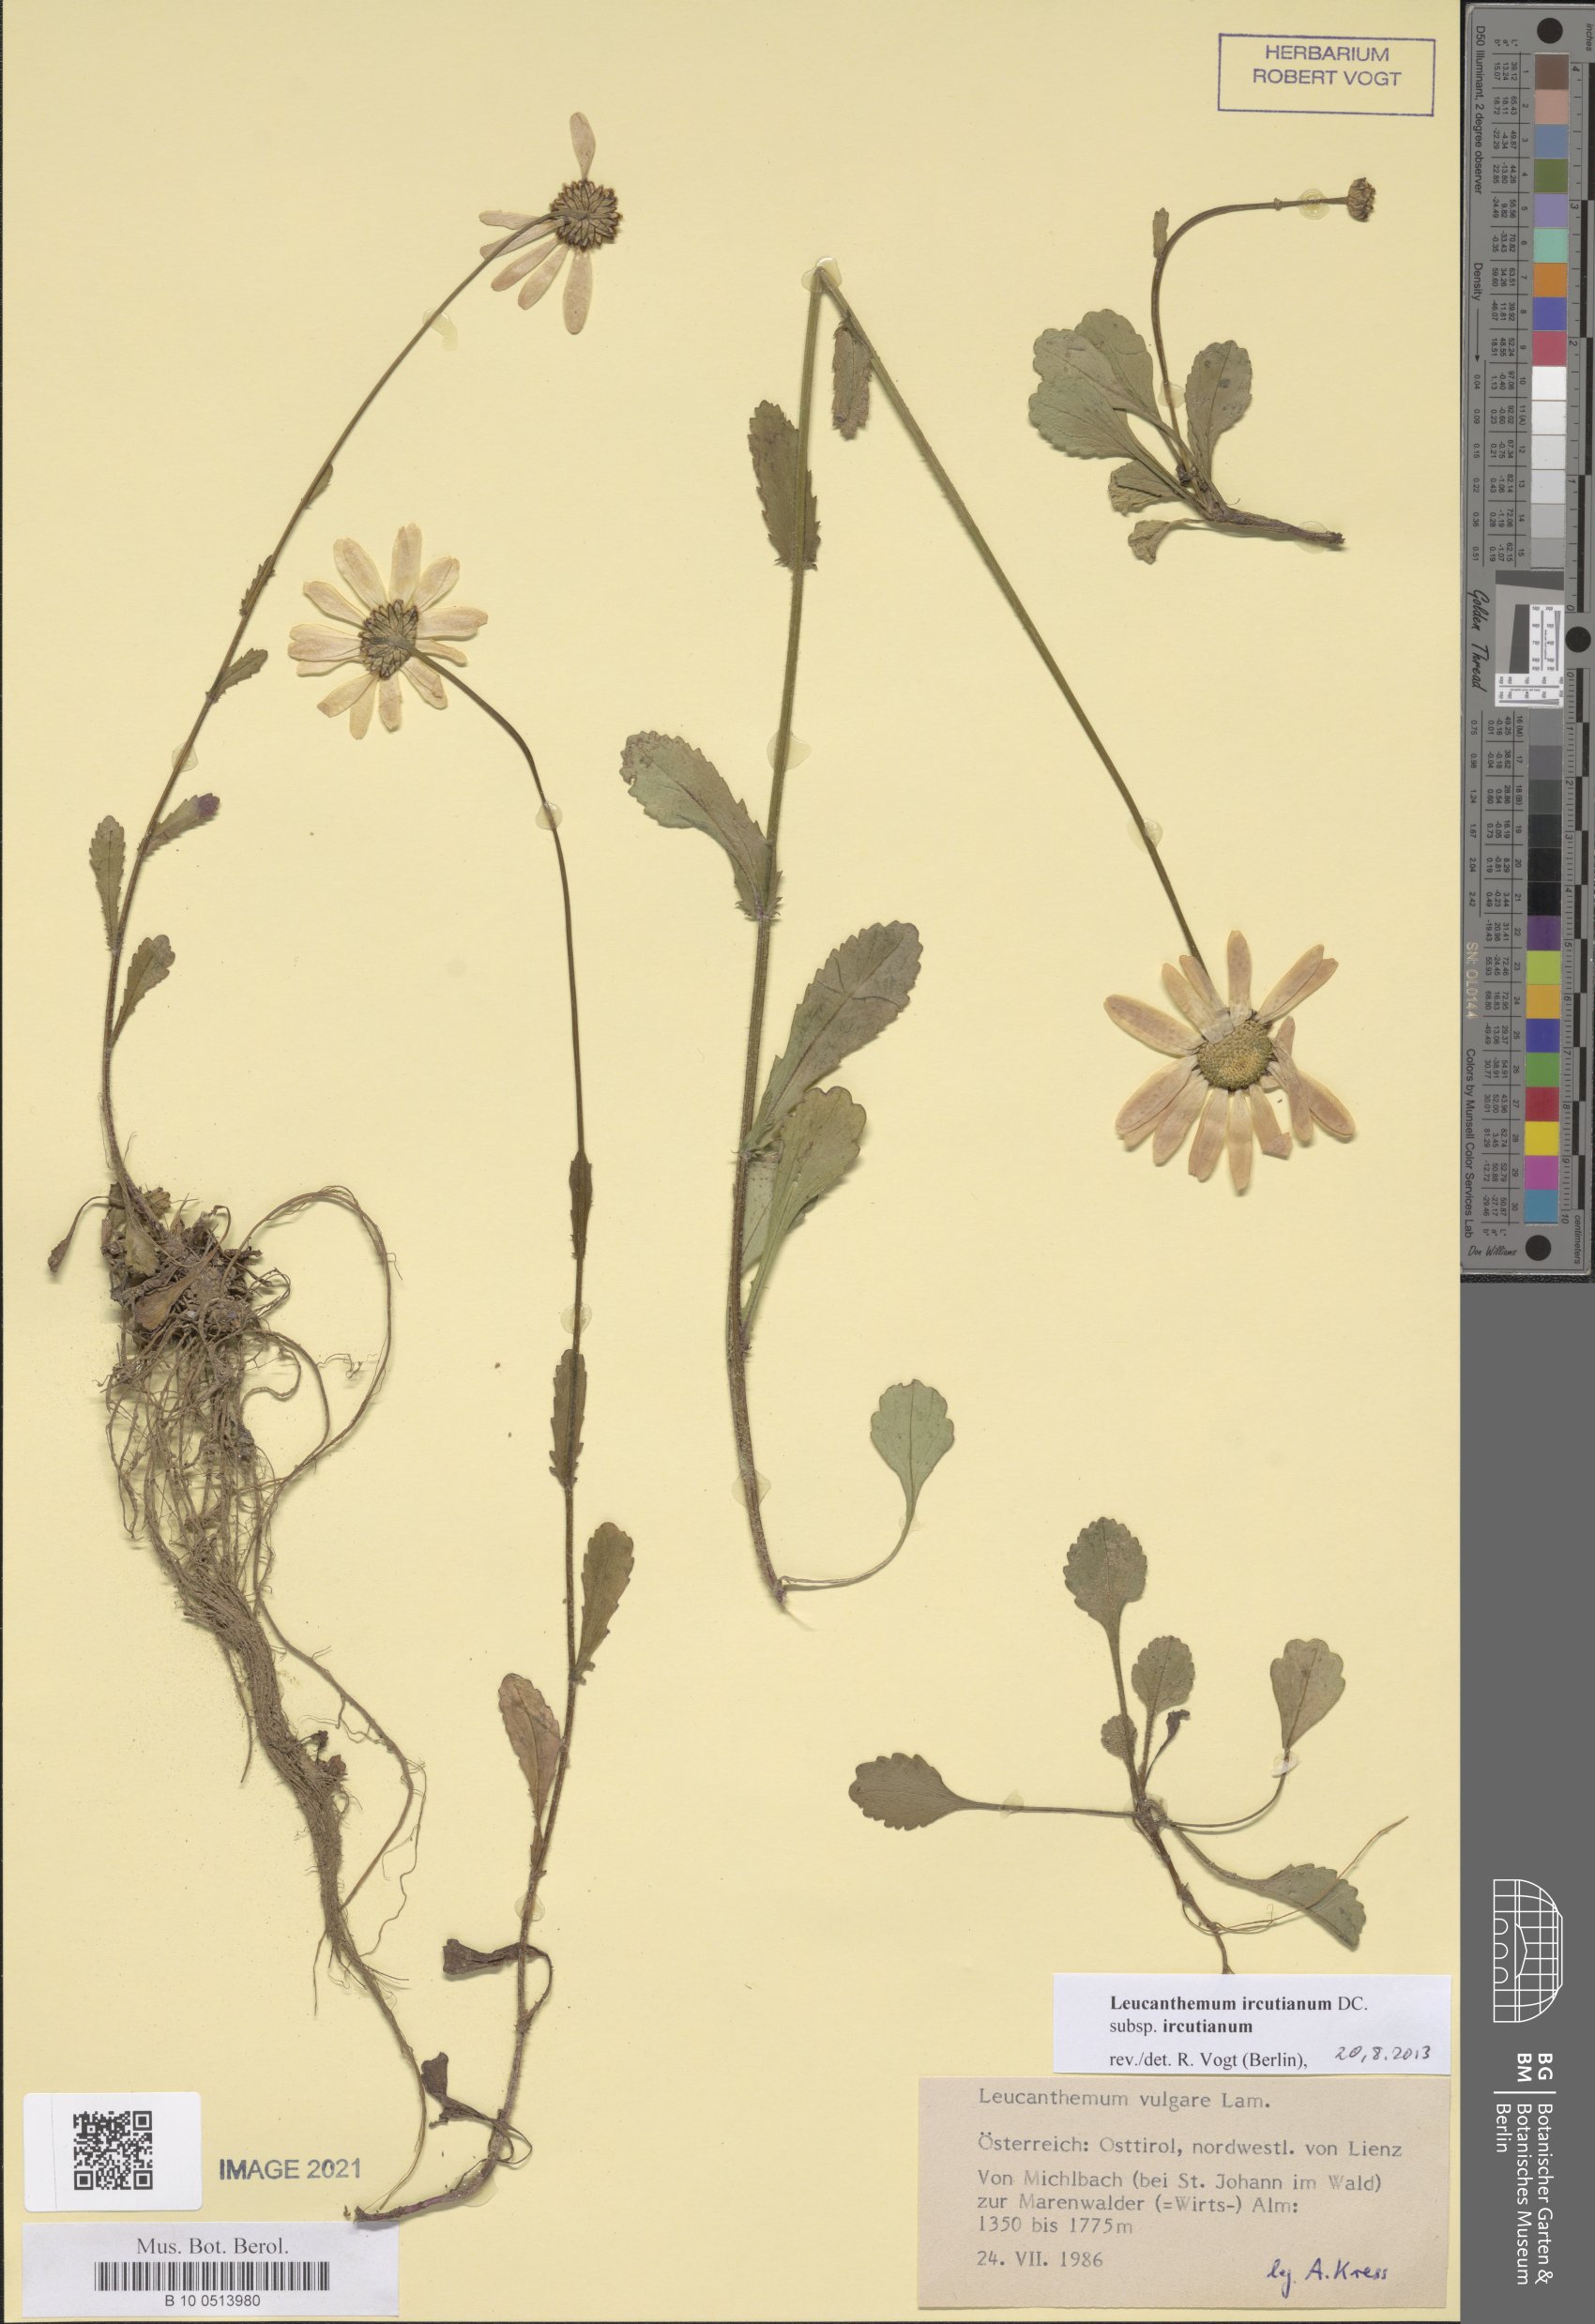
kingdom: Plantae
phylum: Tracheophyta
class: Magnoliopsida
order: Asterales
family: Asteraceae
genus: Leucanthemum
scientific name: Leucanthemum ircutianum
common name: Daisy
